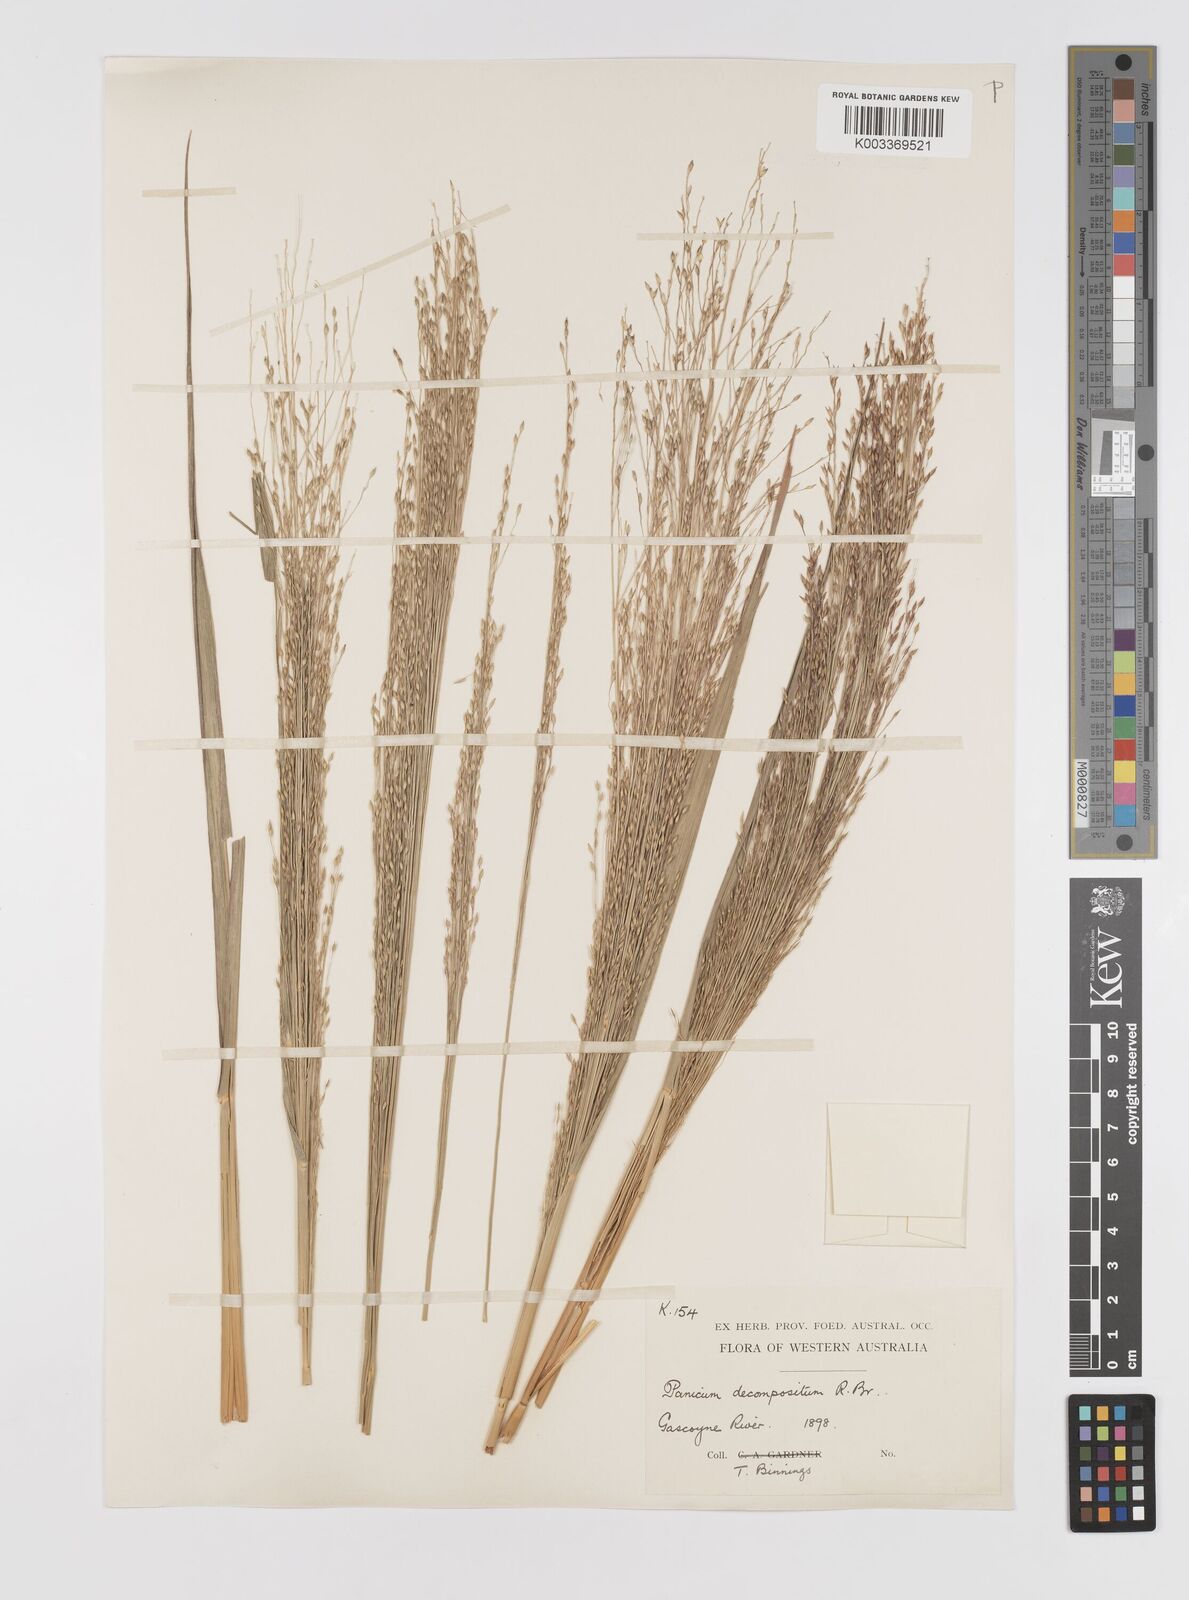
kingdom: Plantae
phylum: Tracheophyta
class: Liliopsida
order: Poales
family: Poaceae
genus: Panicum
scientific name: Panicum decompositum
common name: Australian millet
